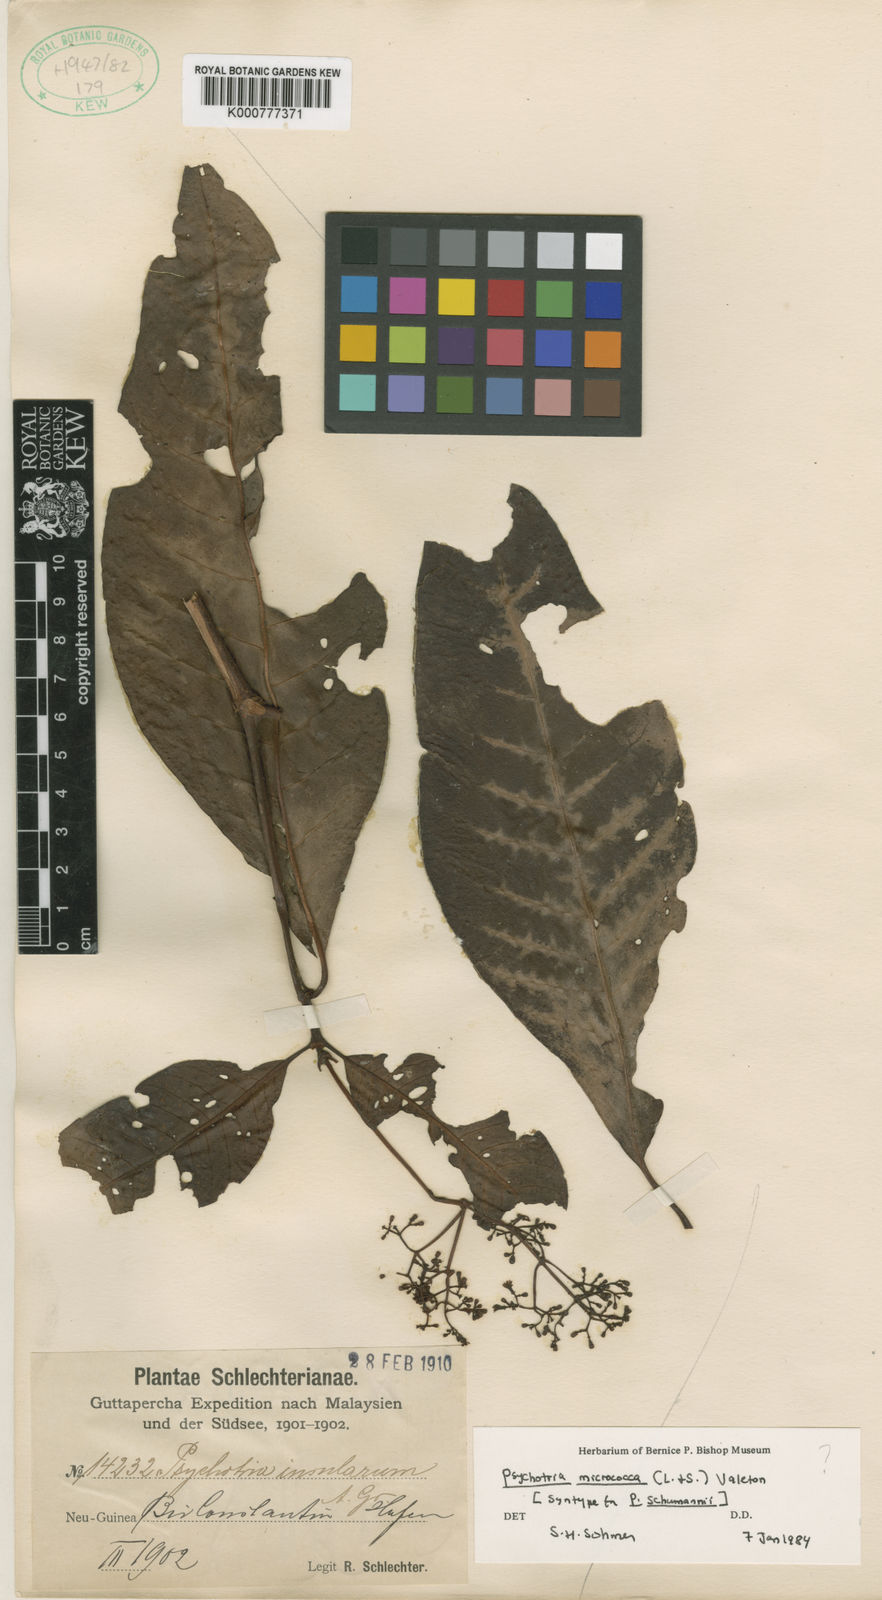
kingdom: Plantae
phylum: Tracheophyta
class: Magnoliopsida
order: Gentianales
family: Rubiaceae
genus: Psychotria
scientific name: Psychotria micrococca
